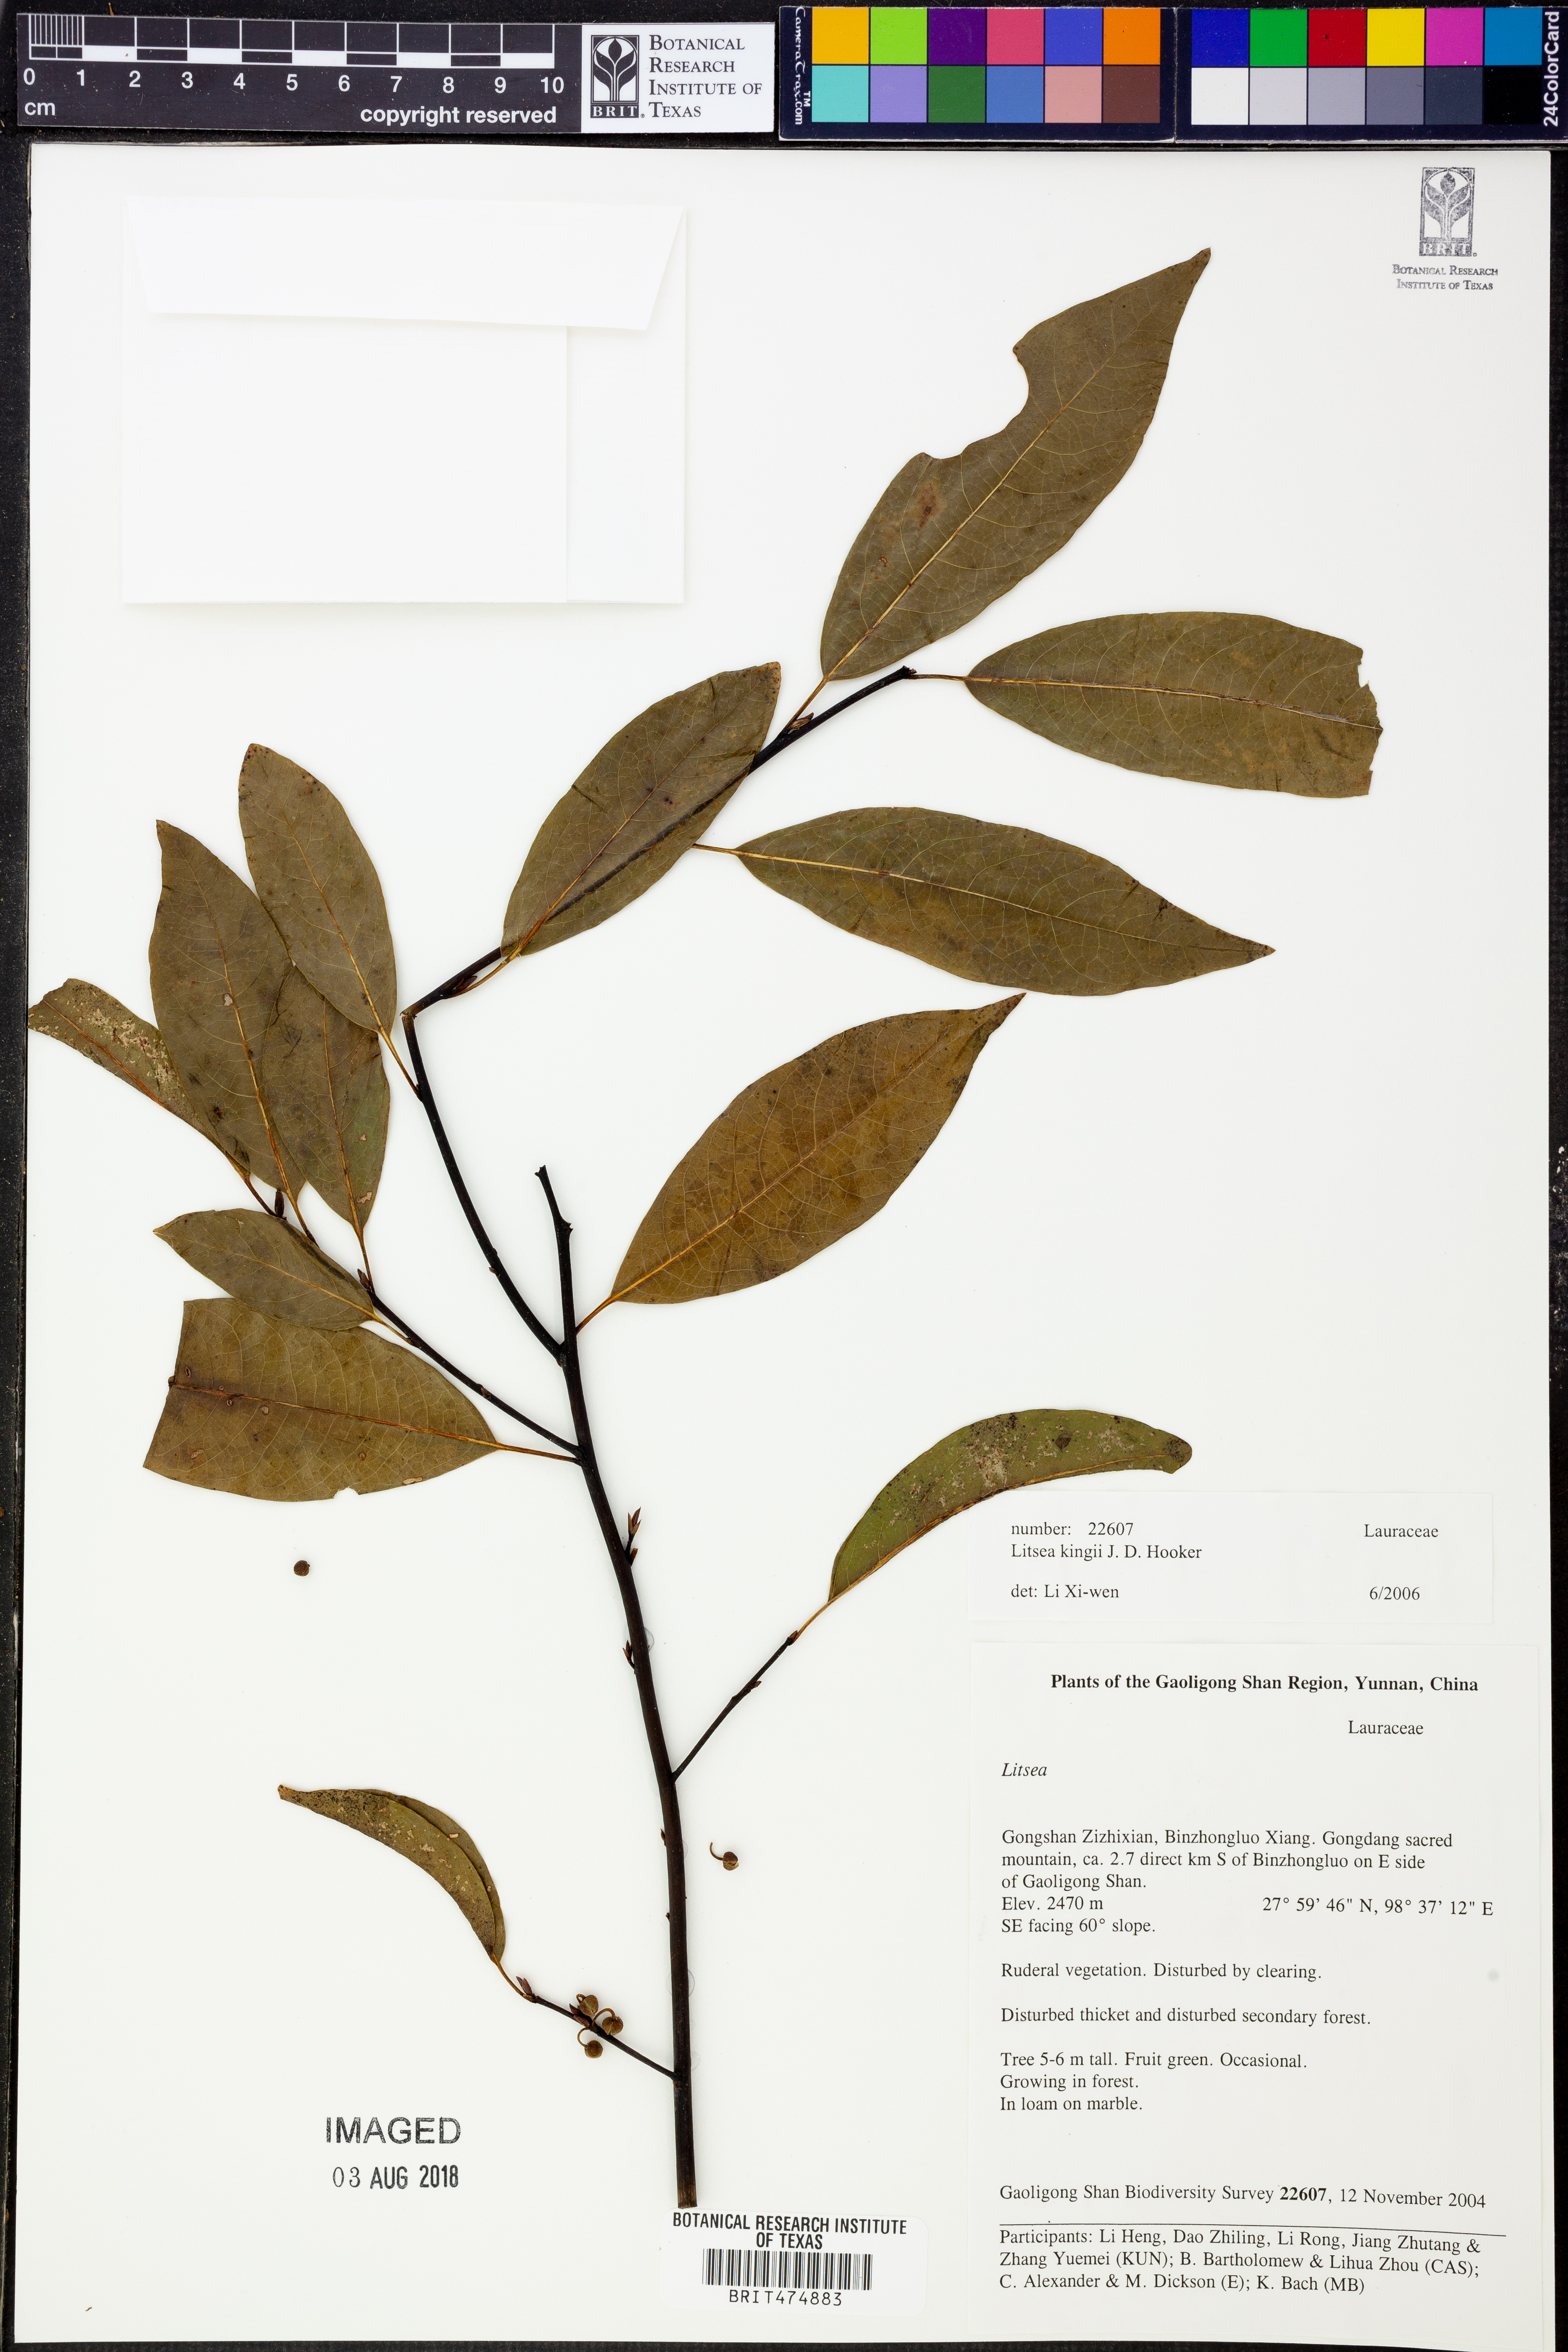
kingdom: Plantae
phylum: Tracheophyta
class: Magnoliopsida
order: Laurales
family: Lauraceae
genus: Litsea
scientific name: Litsea kingii
